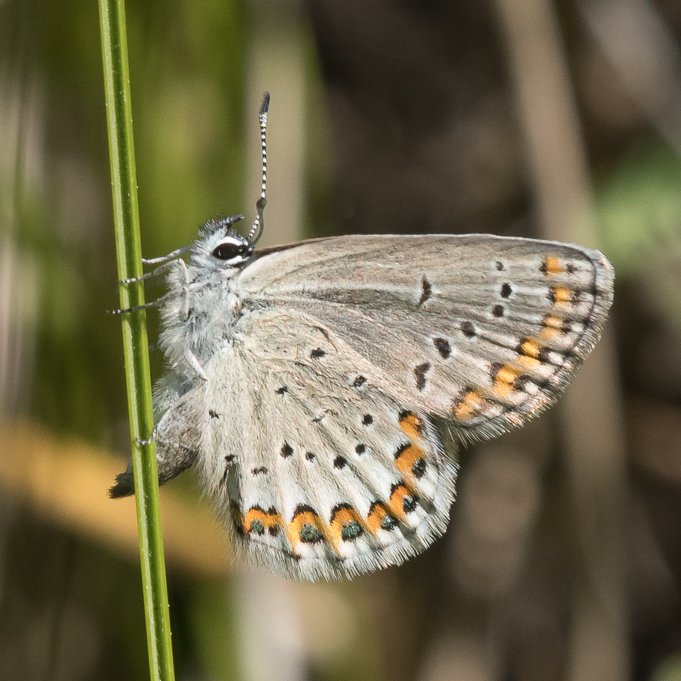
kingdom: Animalia
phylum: Arthropoda
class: Insecta
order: Lepidoptera
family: Lycaenidae
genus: Lycaeides
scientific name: Lycaeides melissa
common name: Melissa Blue
